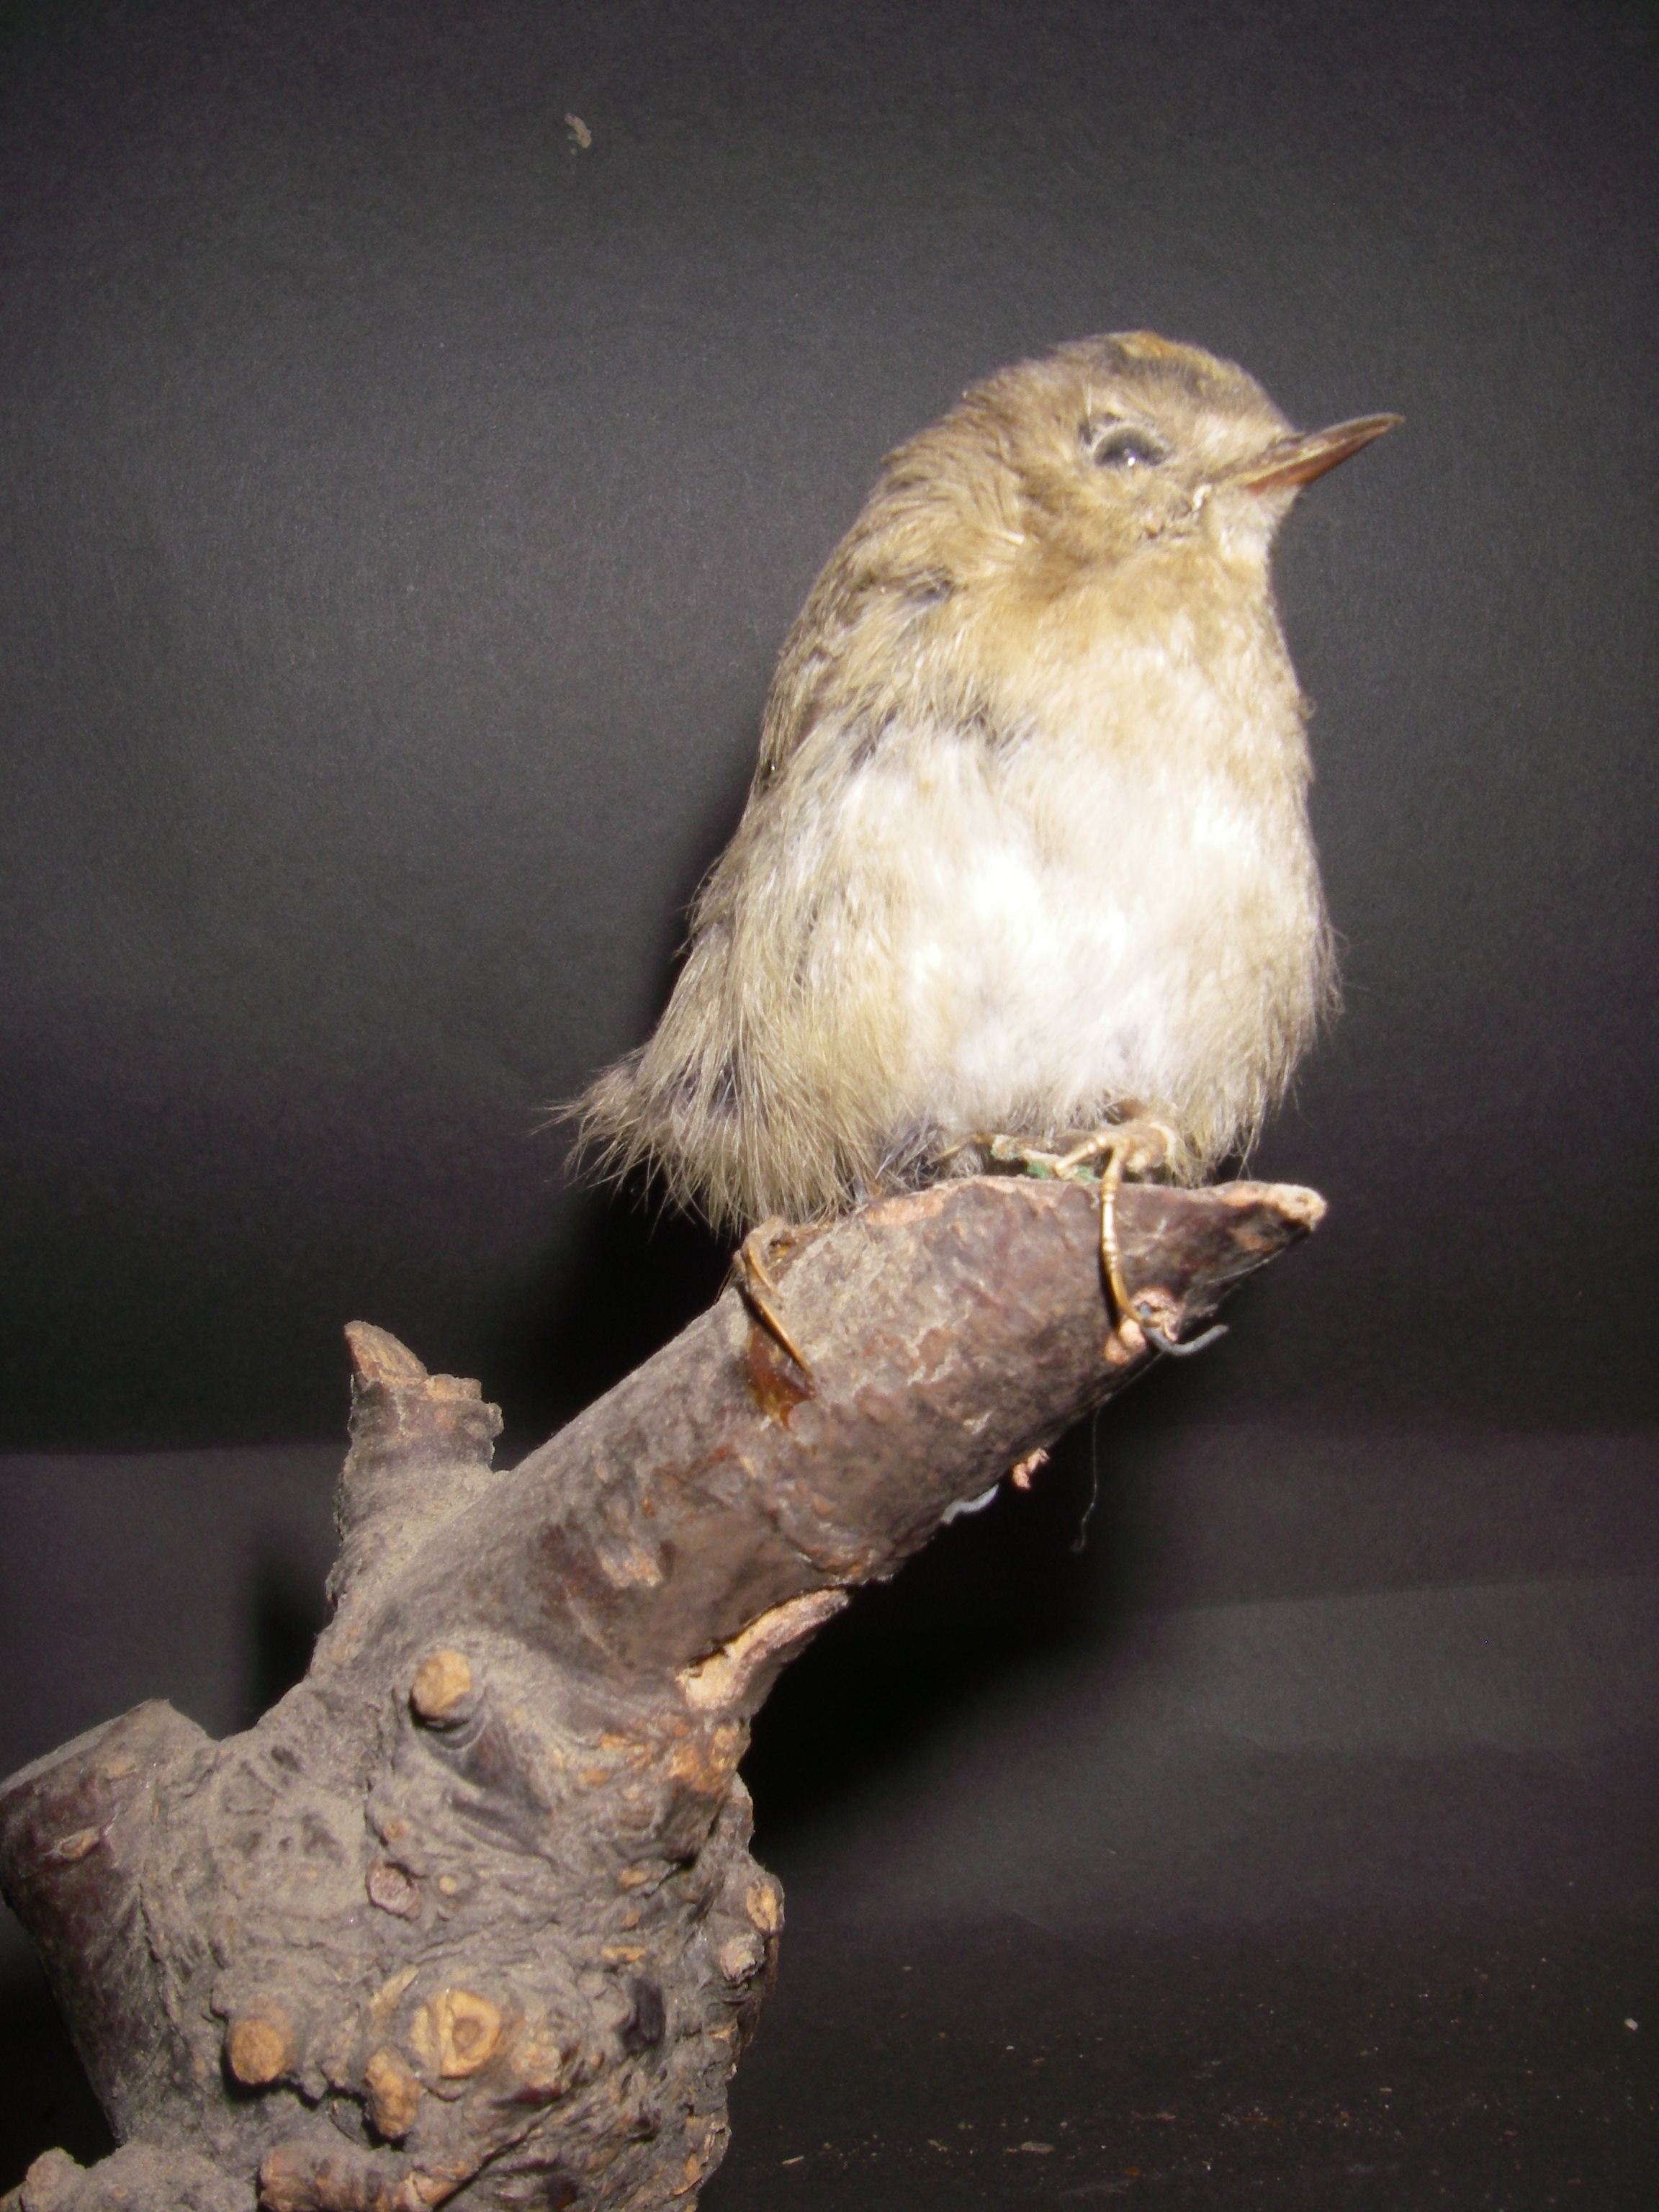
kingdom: Animalia
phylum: Chordata
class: Aves
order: Passeriformes
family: Regulidae
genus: Regulus
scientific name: Regulus regulus
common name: Goldcrest
